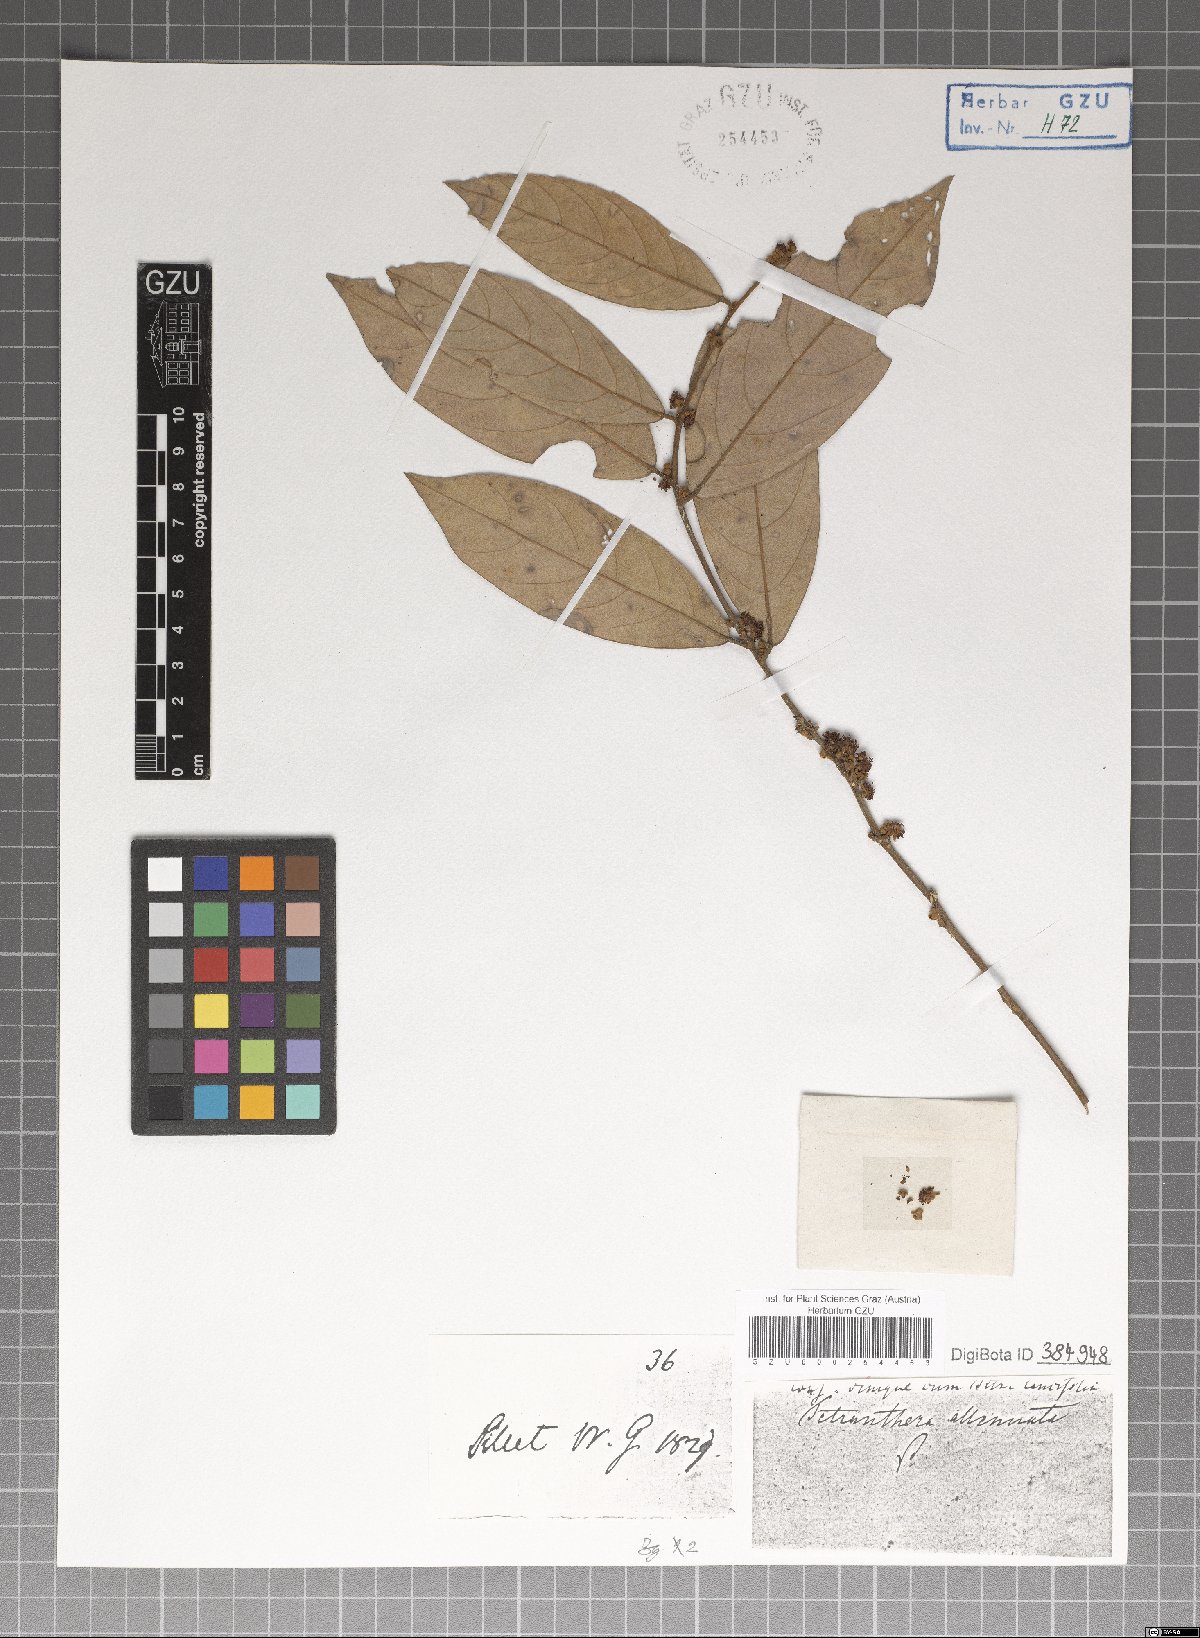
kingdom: Plantae
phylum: Tracheophyta
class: Magnoliopsida
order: Laurales
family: Lauraceae
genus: Litsea
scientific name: Litsea salicifolia
